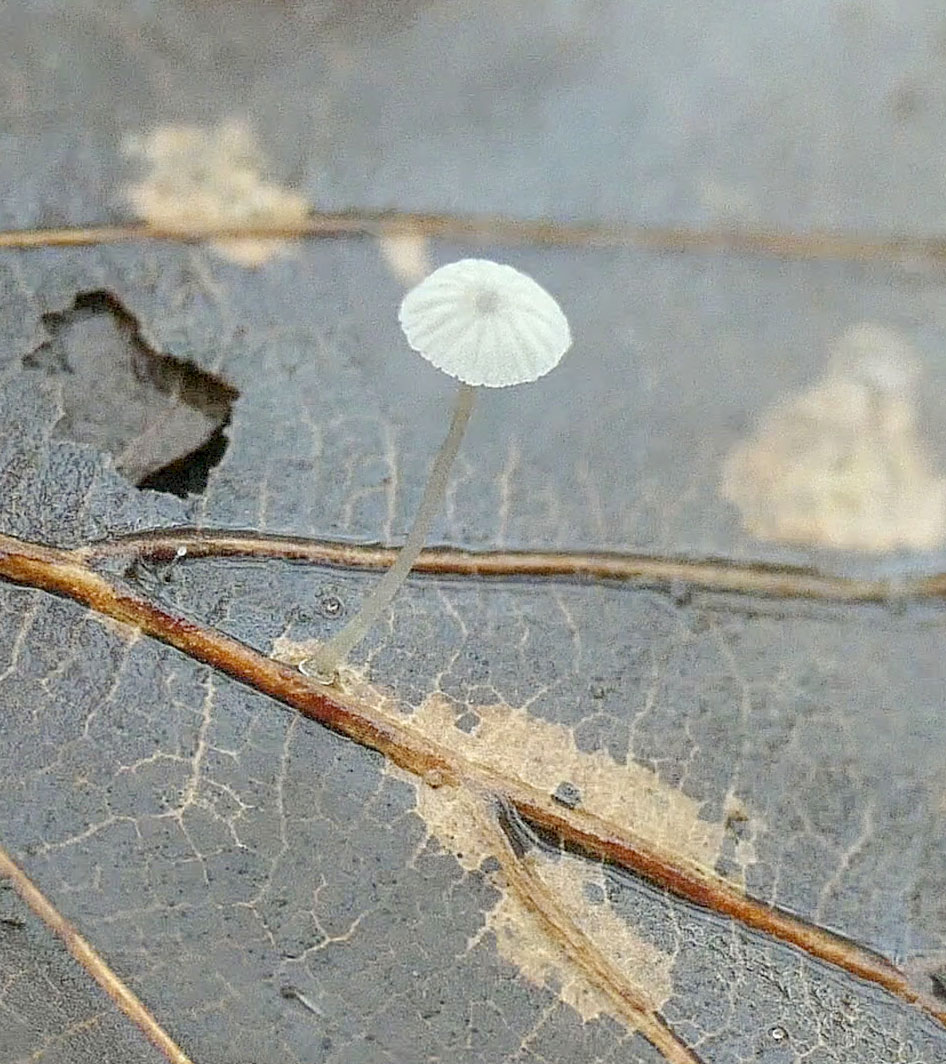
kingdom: Fungi
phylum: Basidiomycota
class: Agaricomycetes
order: Agaricales
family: Mycenaceae
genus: Mycena
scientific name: Mycena
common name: huesvamp
